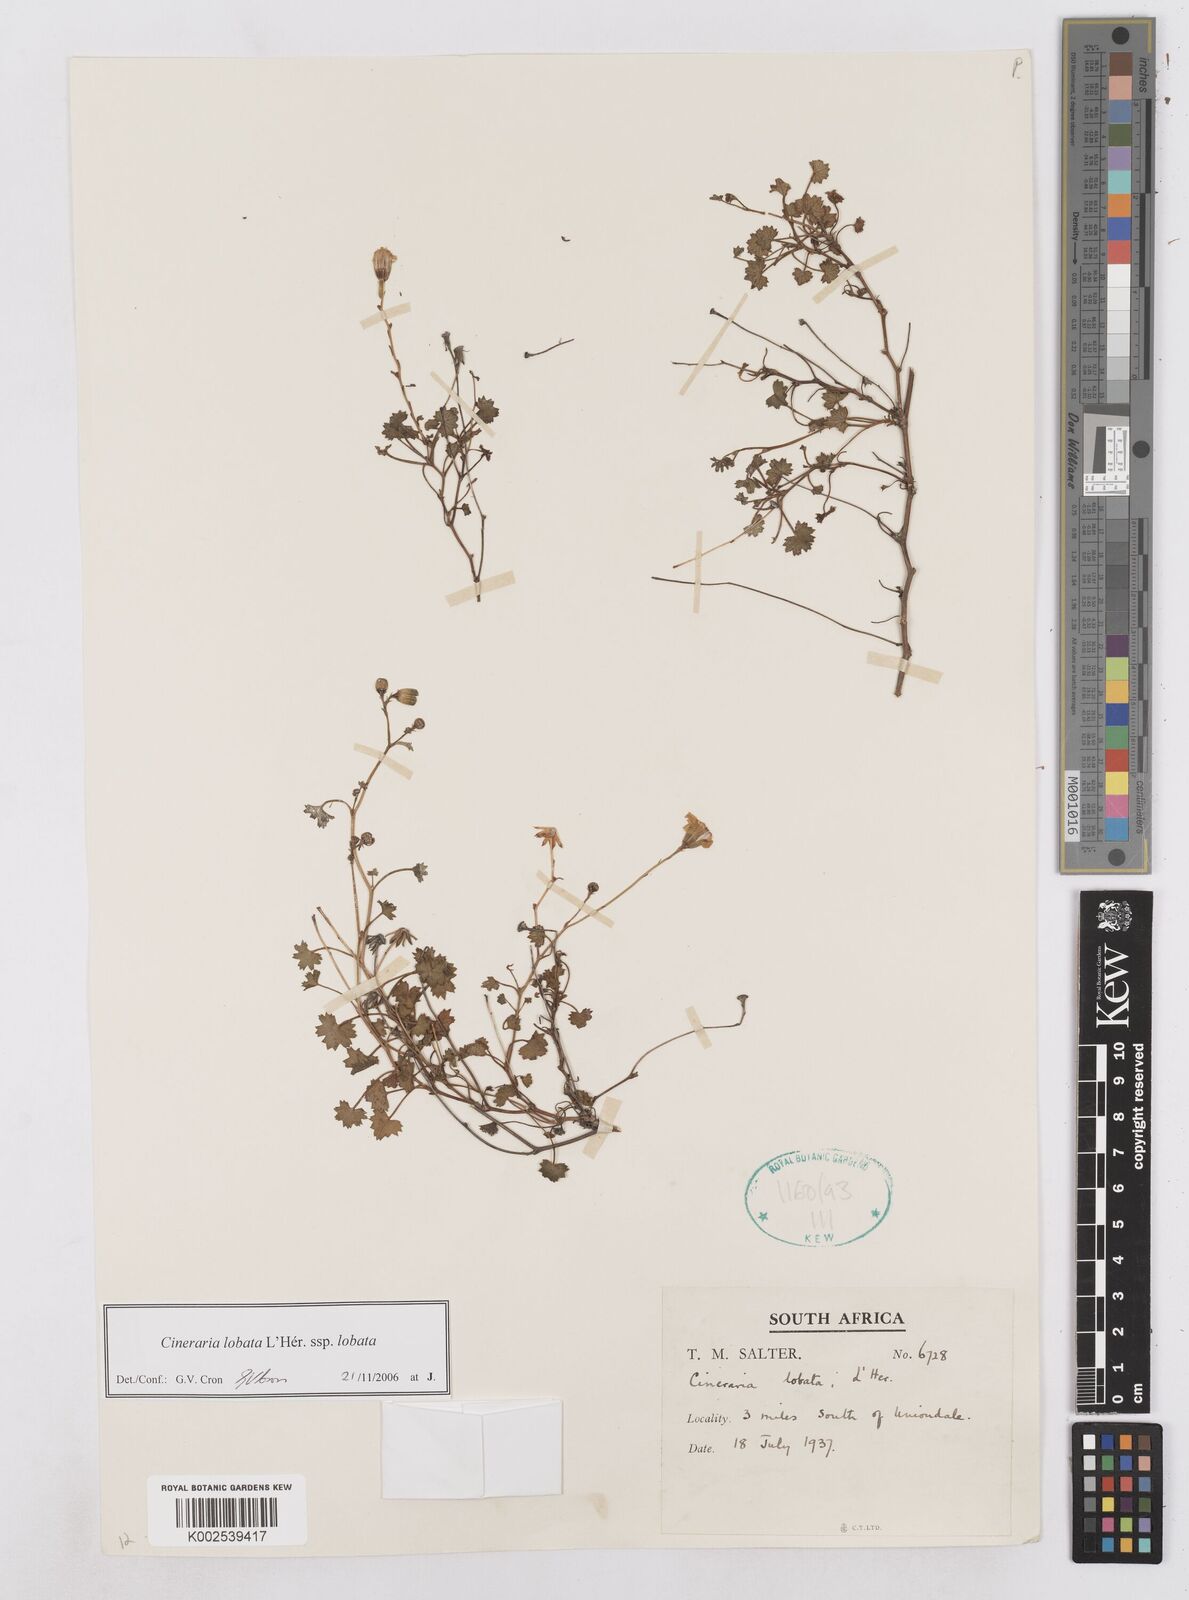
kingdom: Plantae
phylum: Tracheophyta
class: Magnoliopsida
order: Asterales
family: Asteraceae
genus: Cineraria
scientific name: Cineraria
